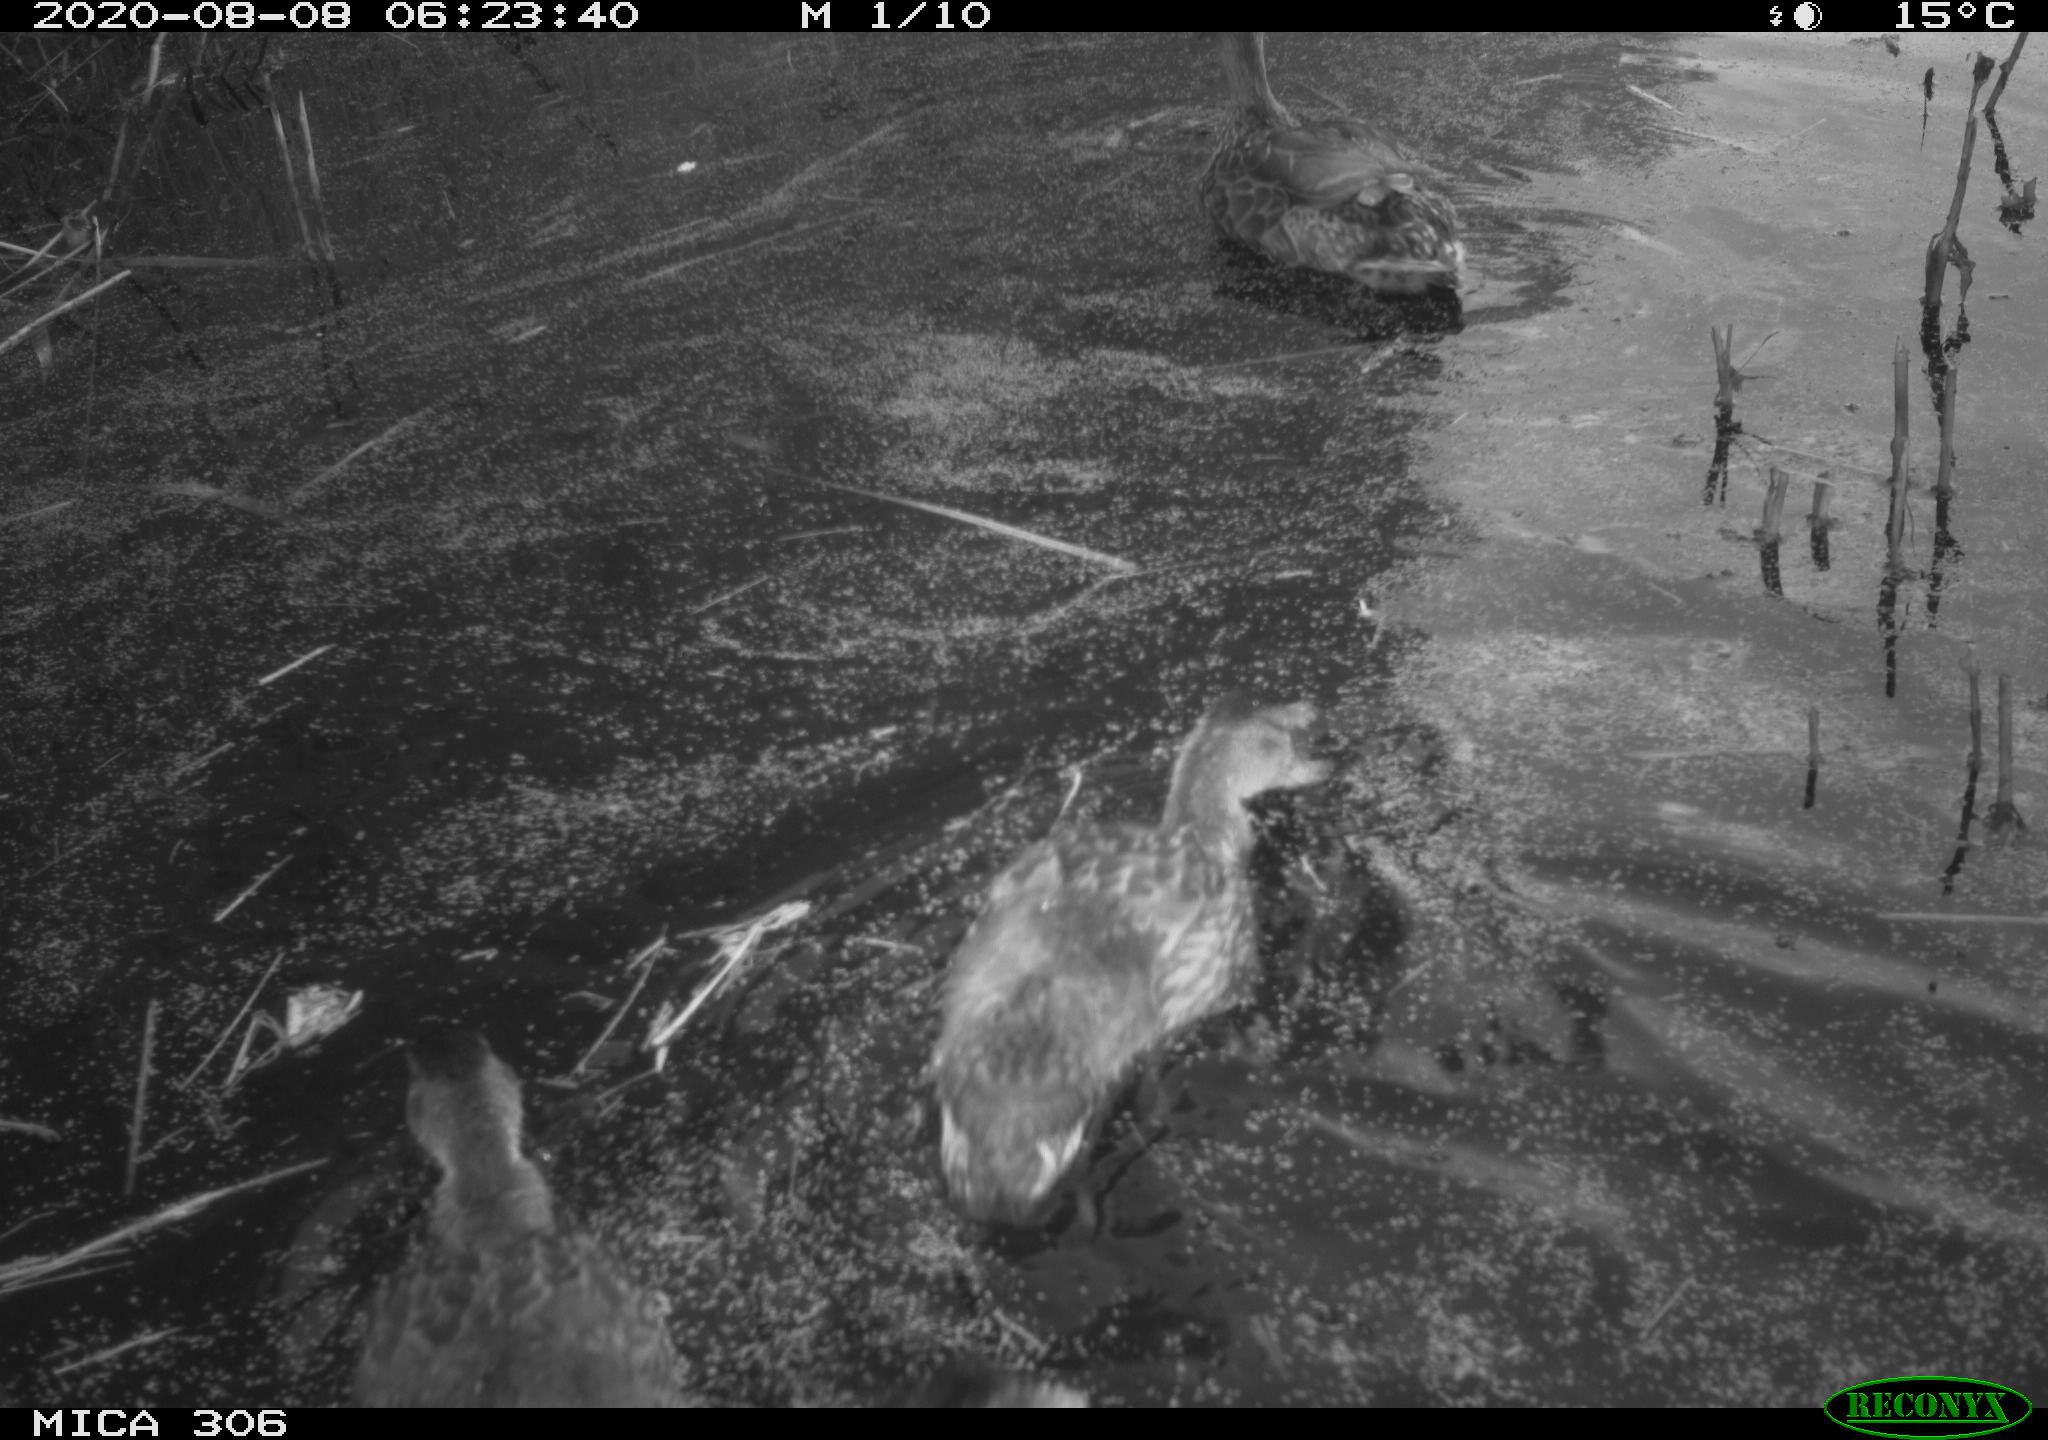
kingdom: Animalia
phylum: Chordata
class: Aves
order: Anseriformes
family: Anatidae
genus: Anas
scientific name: Anas platyrhynchos
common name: Mallard
